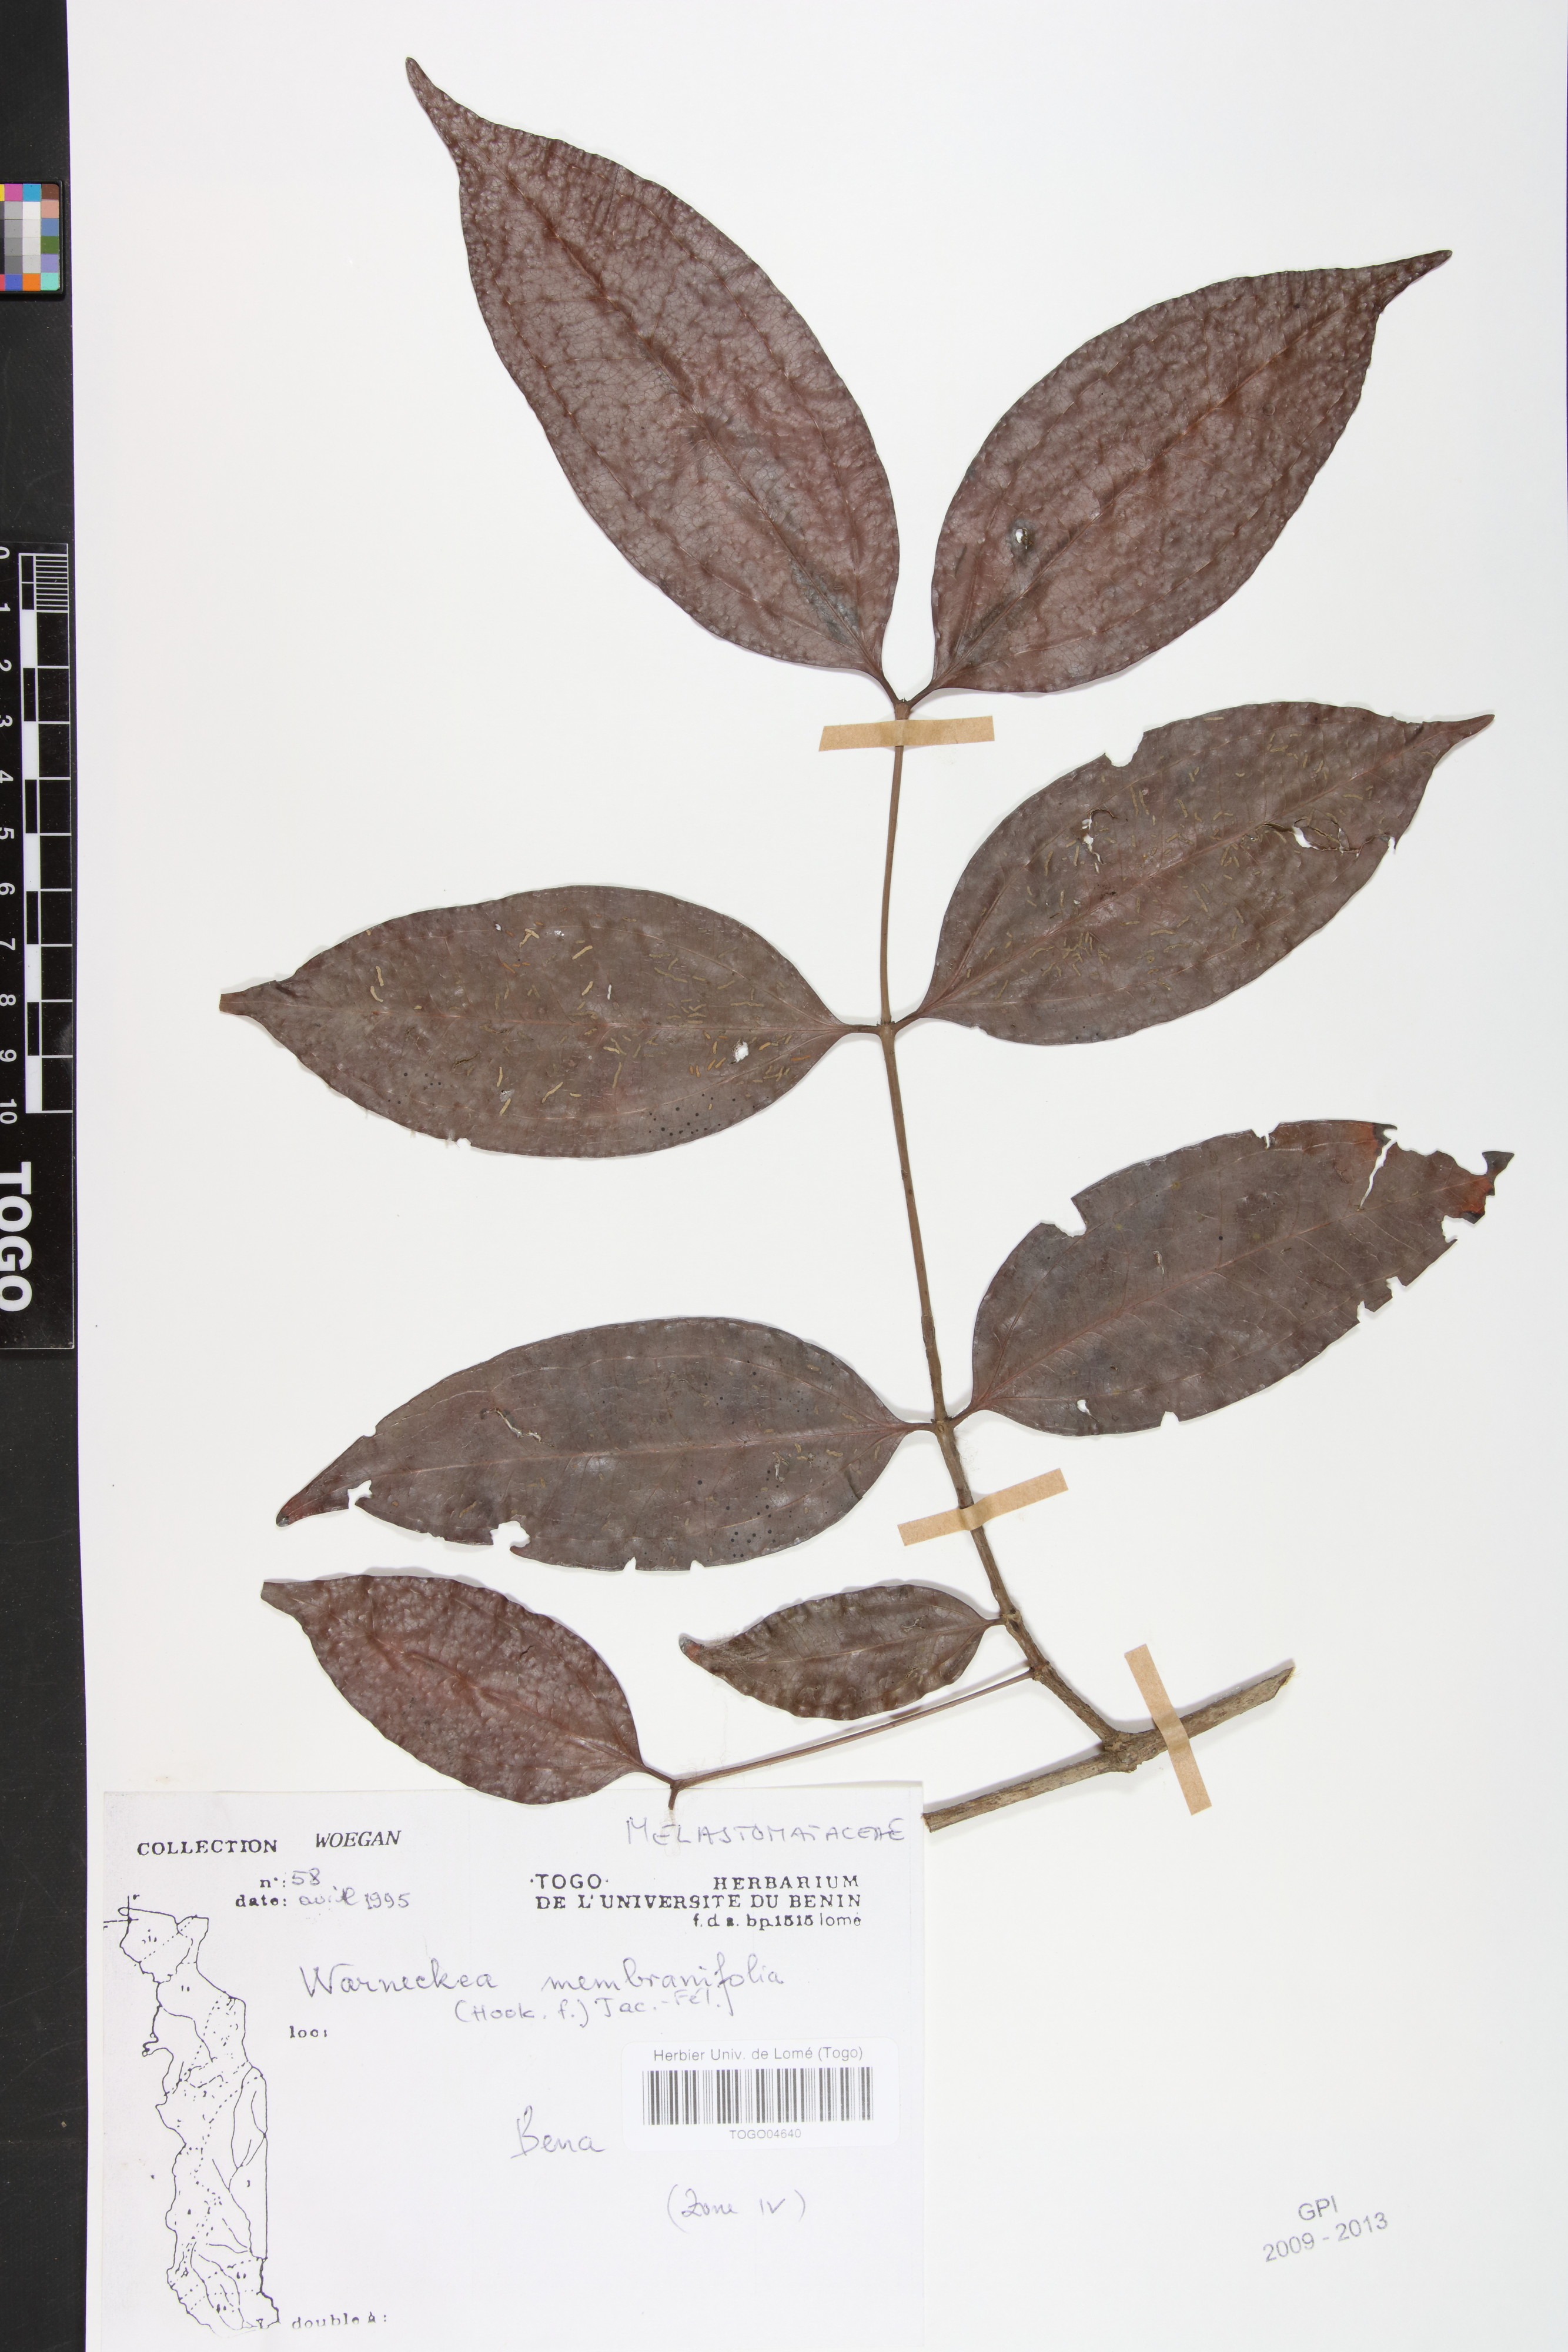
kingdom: Plantae
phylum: Tracheophyta
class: Magnoliopsida
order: Myrtales
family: Melastomataceae
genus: Warneckea
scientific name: Warneckea membranifolia
